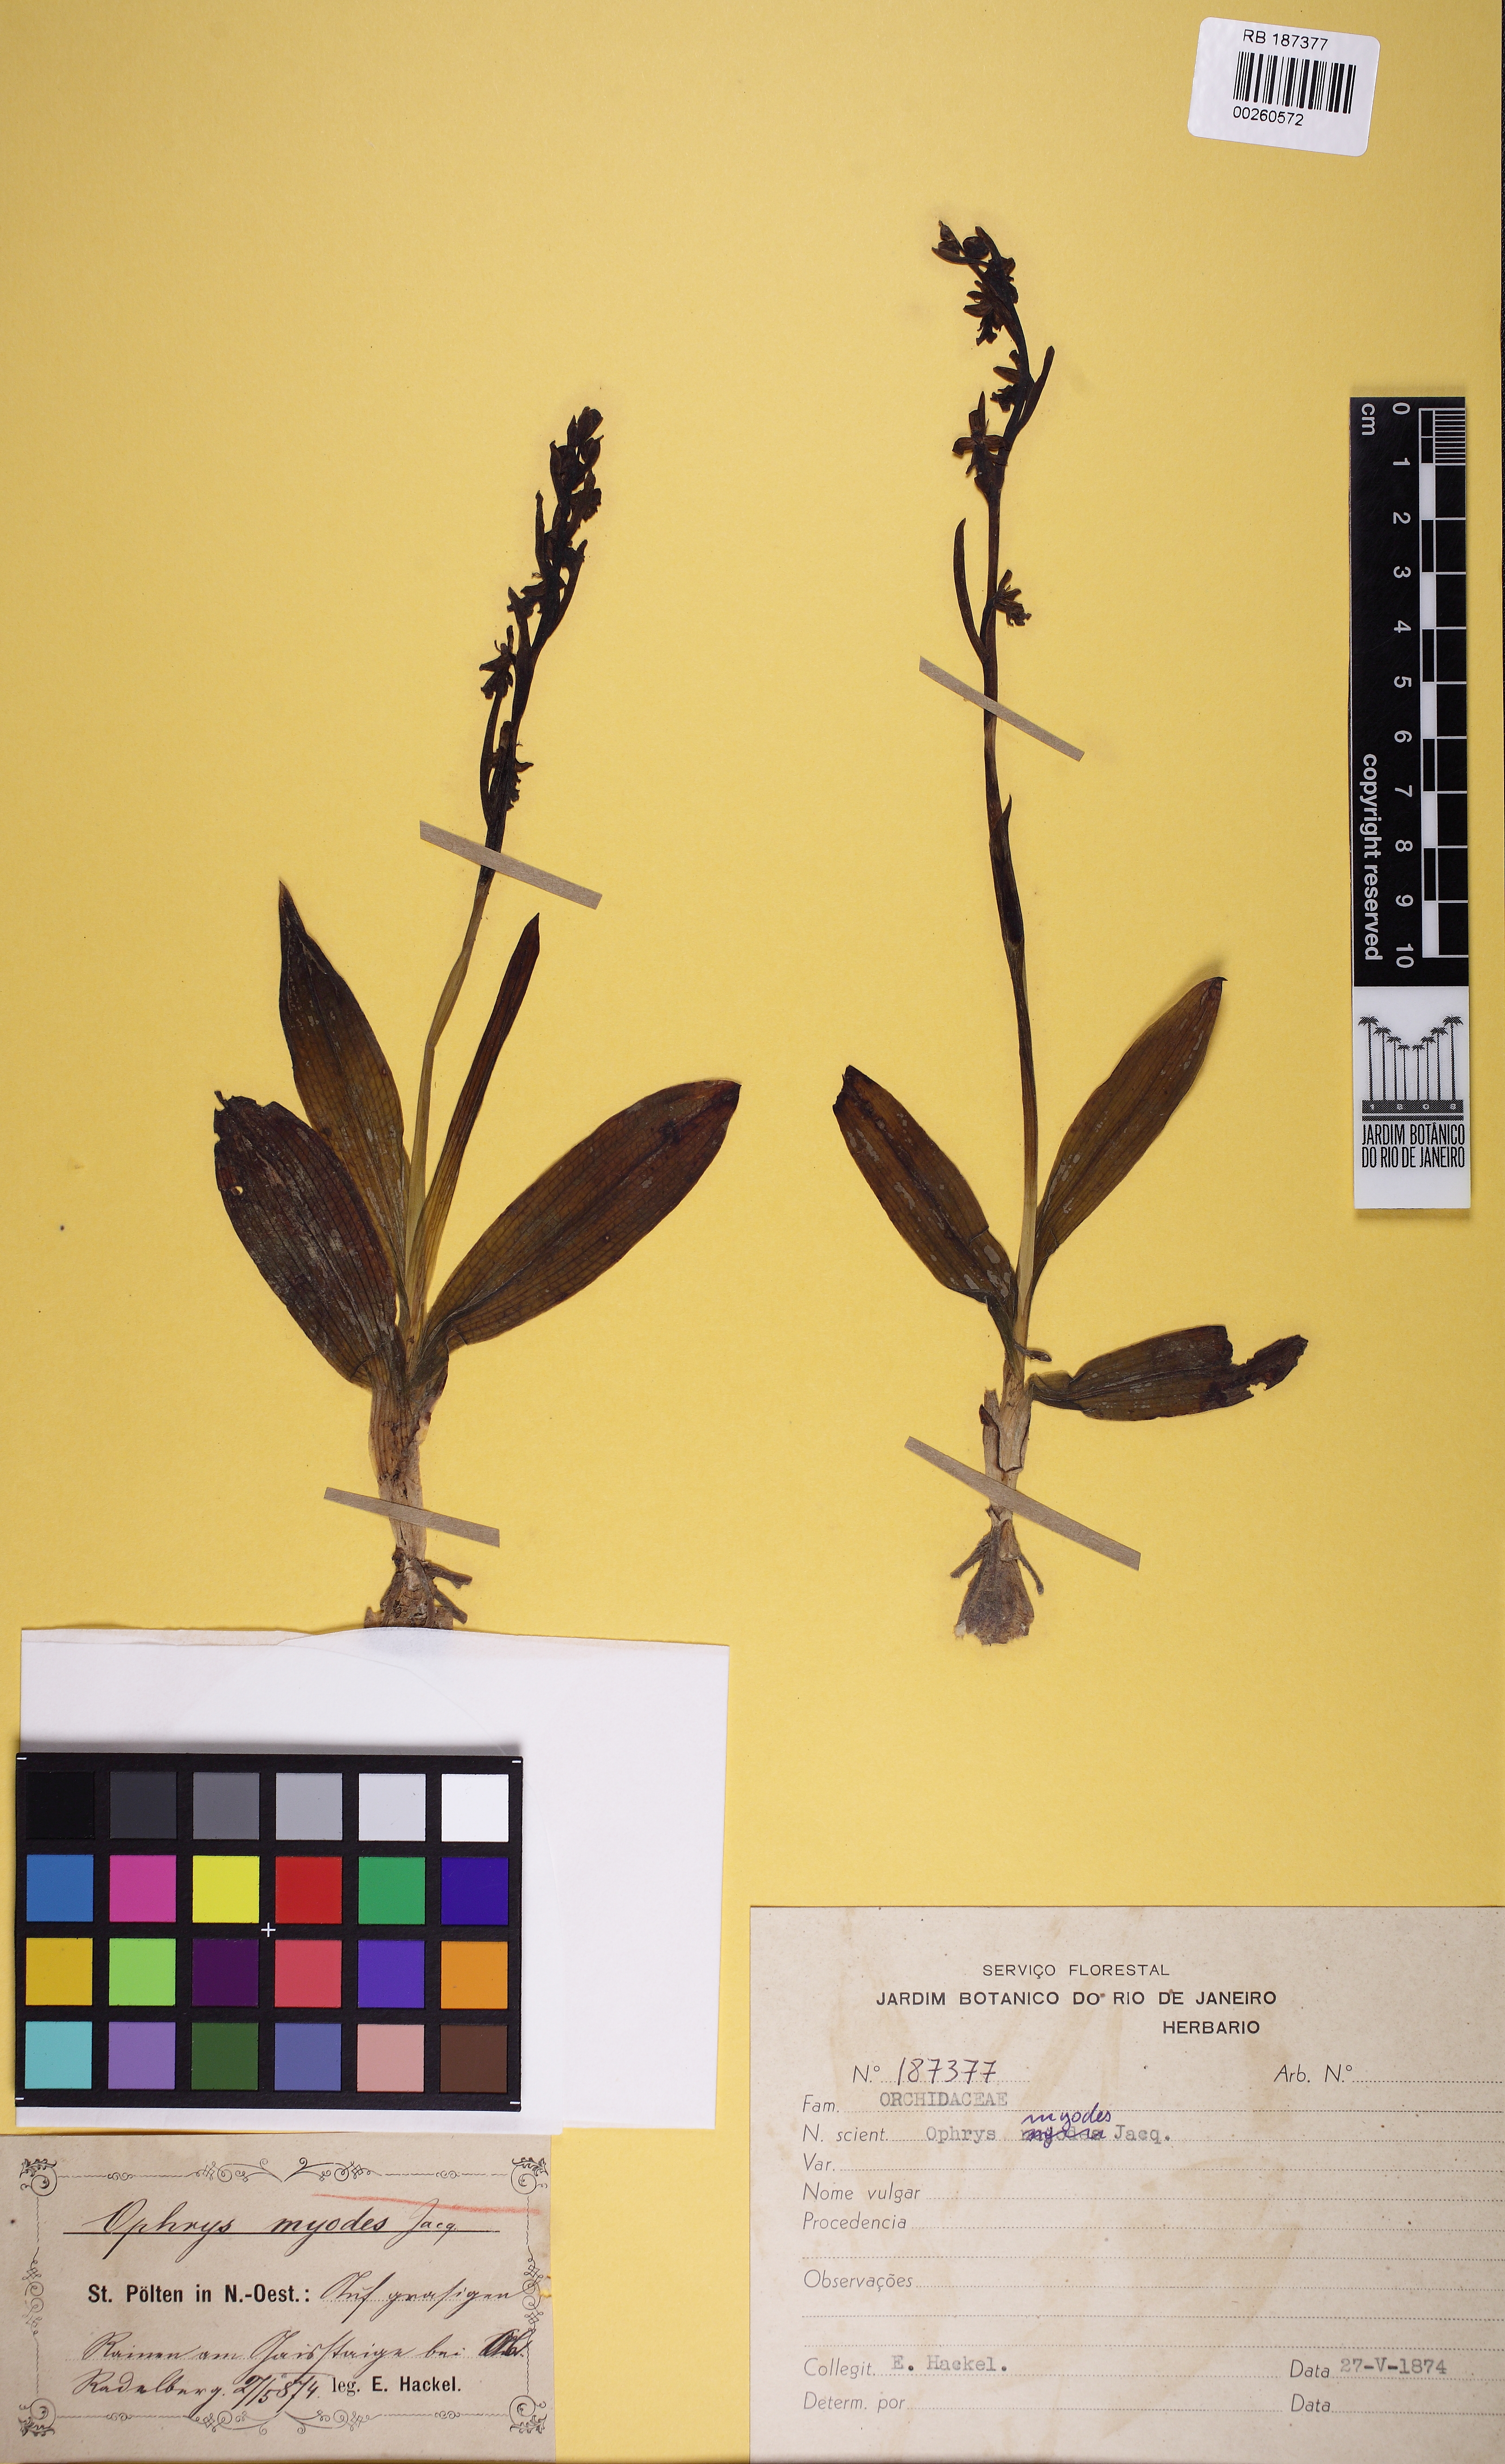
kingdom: Plantae
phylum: Tracheophyta
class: Liliopsida
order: Asparagales
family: Orchidaceae
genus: Ophrys
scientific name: Ophrys insectifera
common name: Fly orchid
